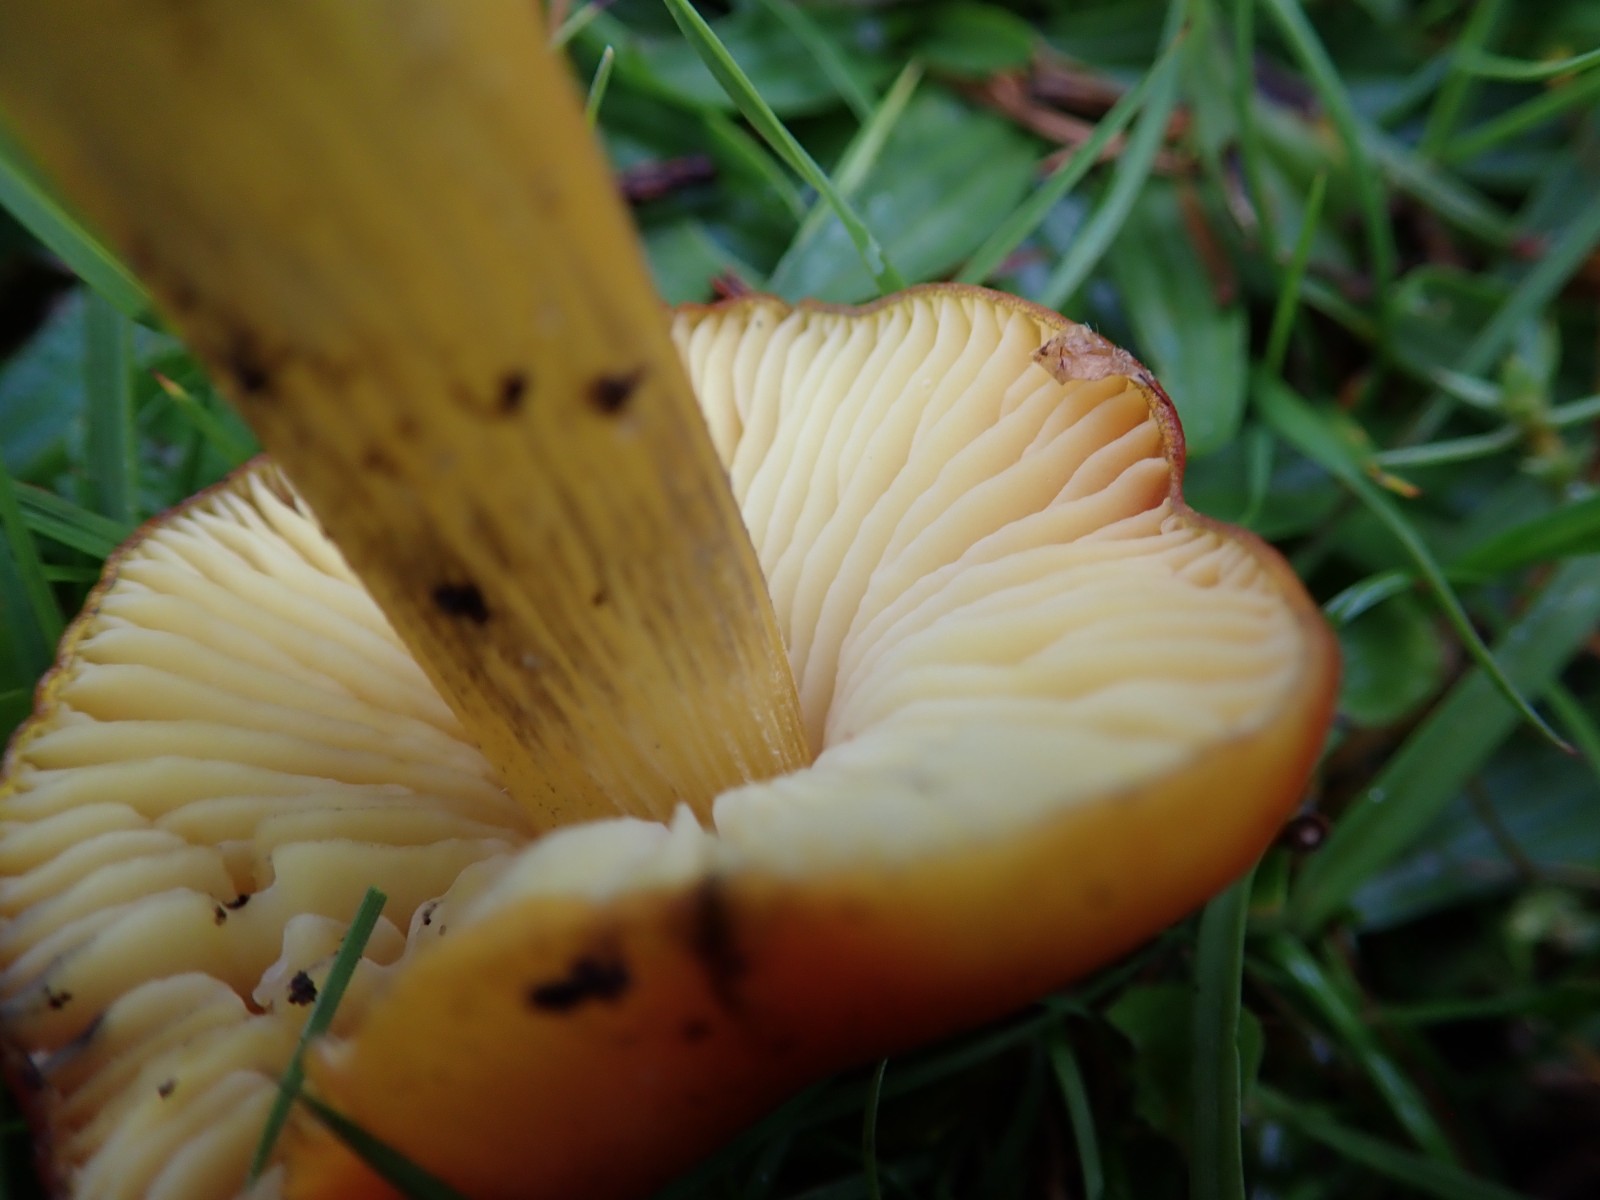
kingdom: Fungi
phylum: Basidiomycota
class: Agaricomycetes
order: Agaricales
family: Hygrophoraceae
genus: Hygrocybe
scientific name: Hygrocybe conica
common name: kegle-vokshat
